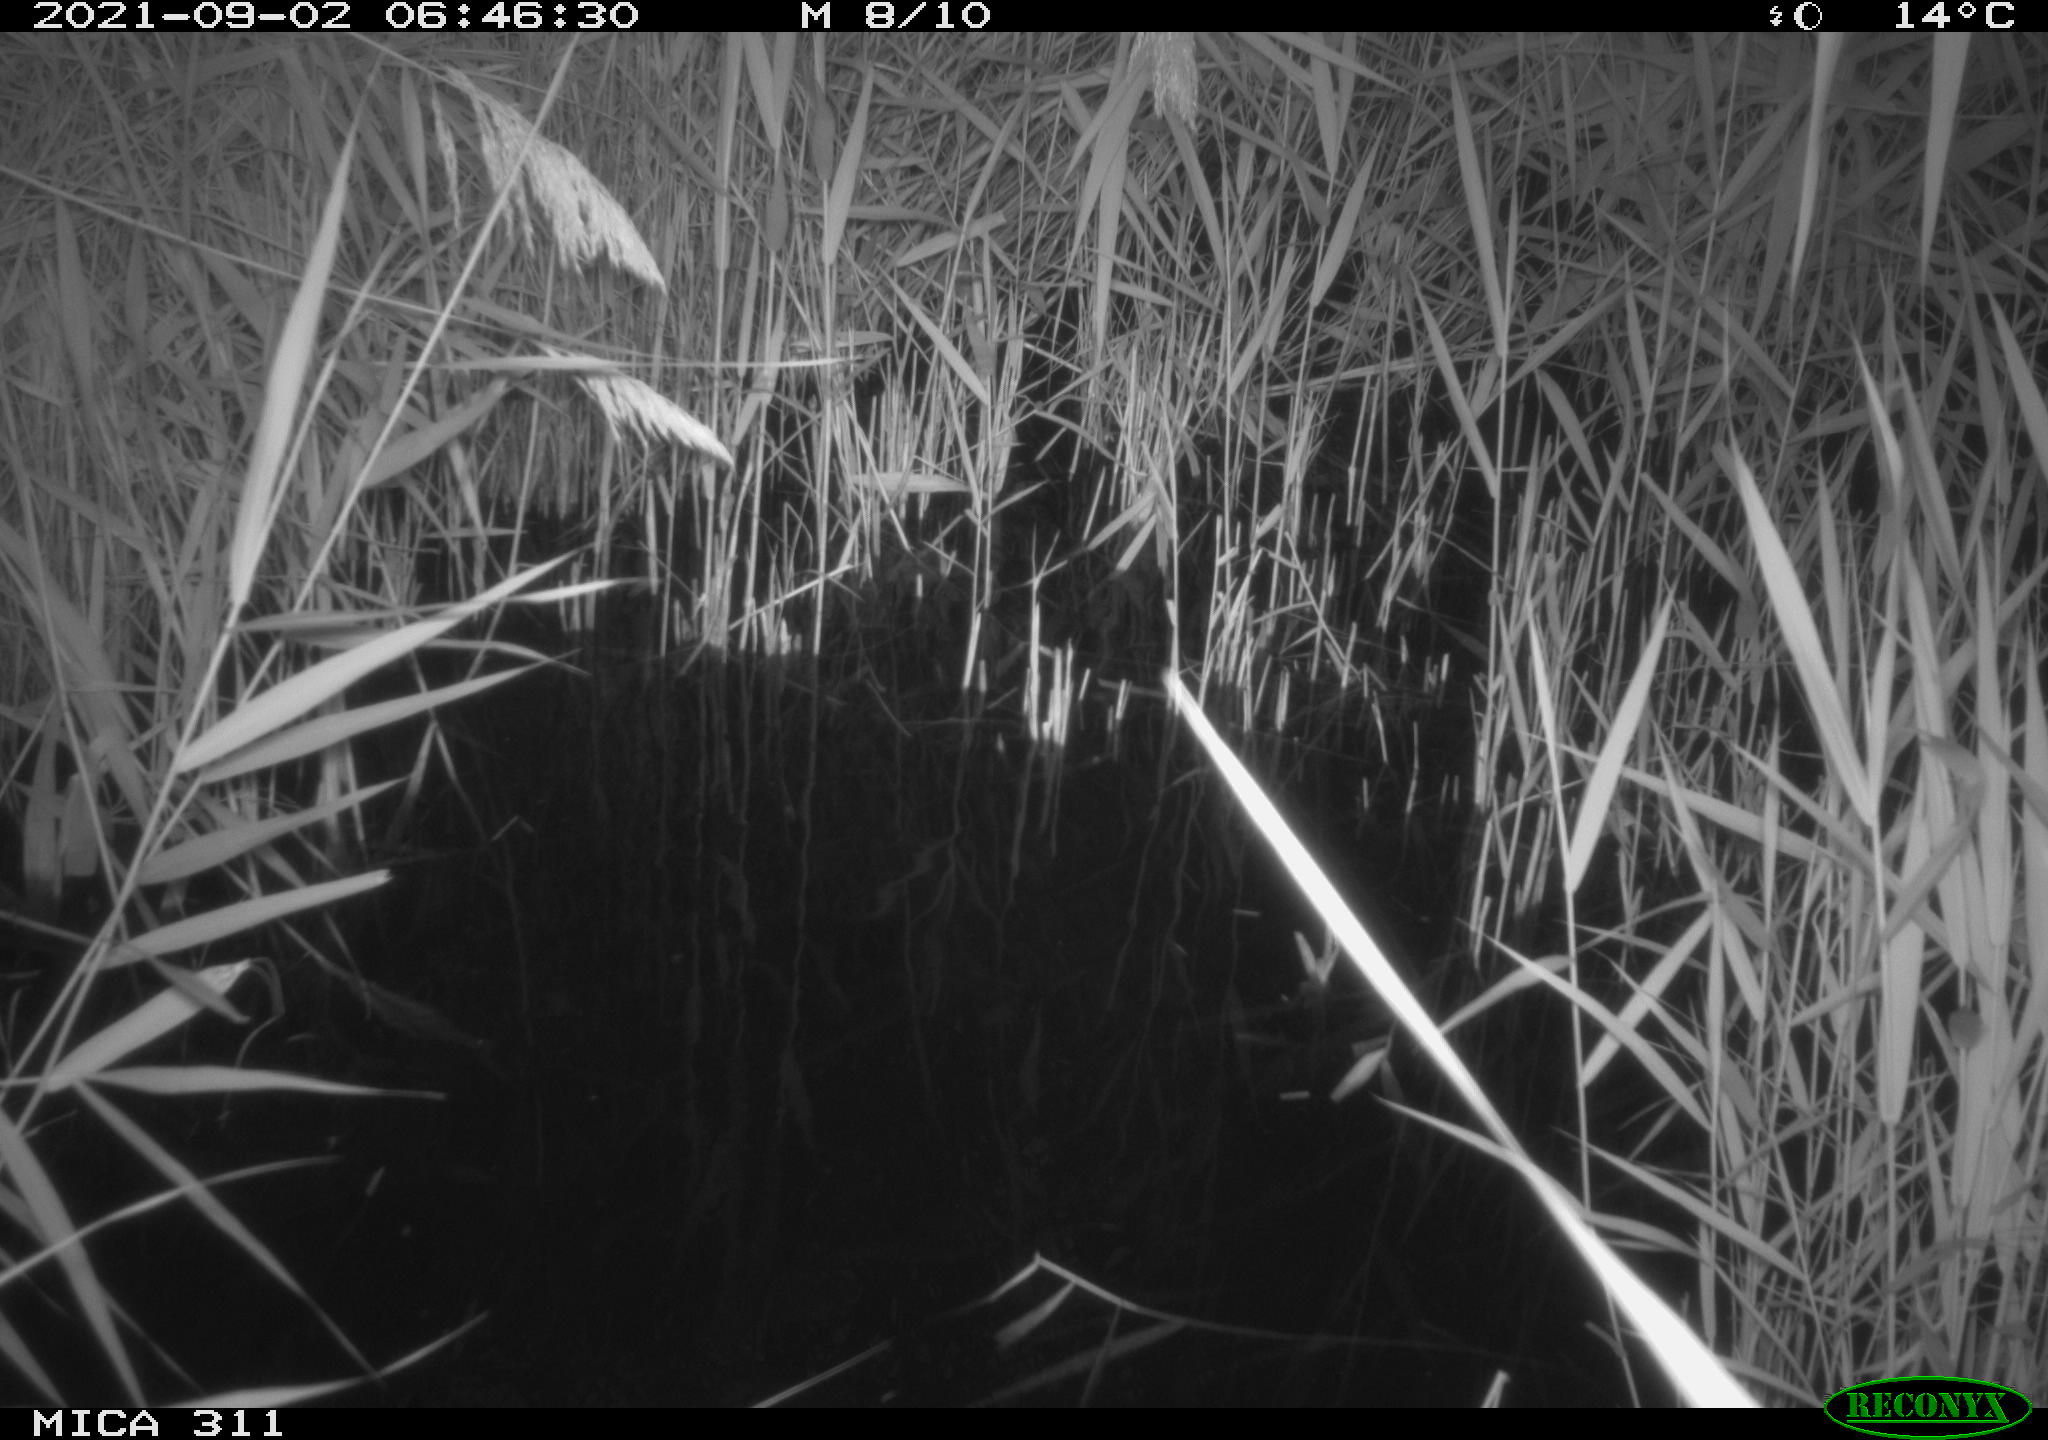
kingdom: Animalia
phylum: Chordata
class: Mammalia
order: Rodentia
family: Muridae
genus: Rattus
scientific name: Rattus norvegicus
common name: Brown rat
